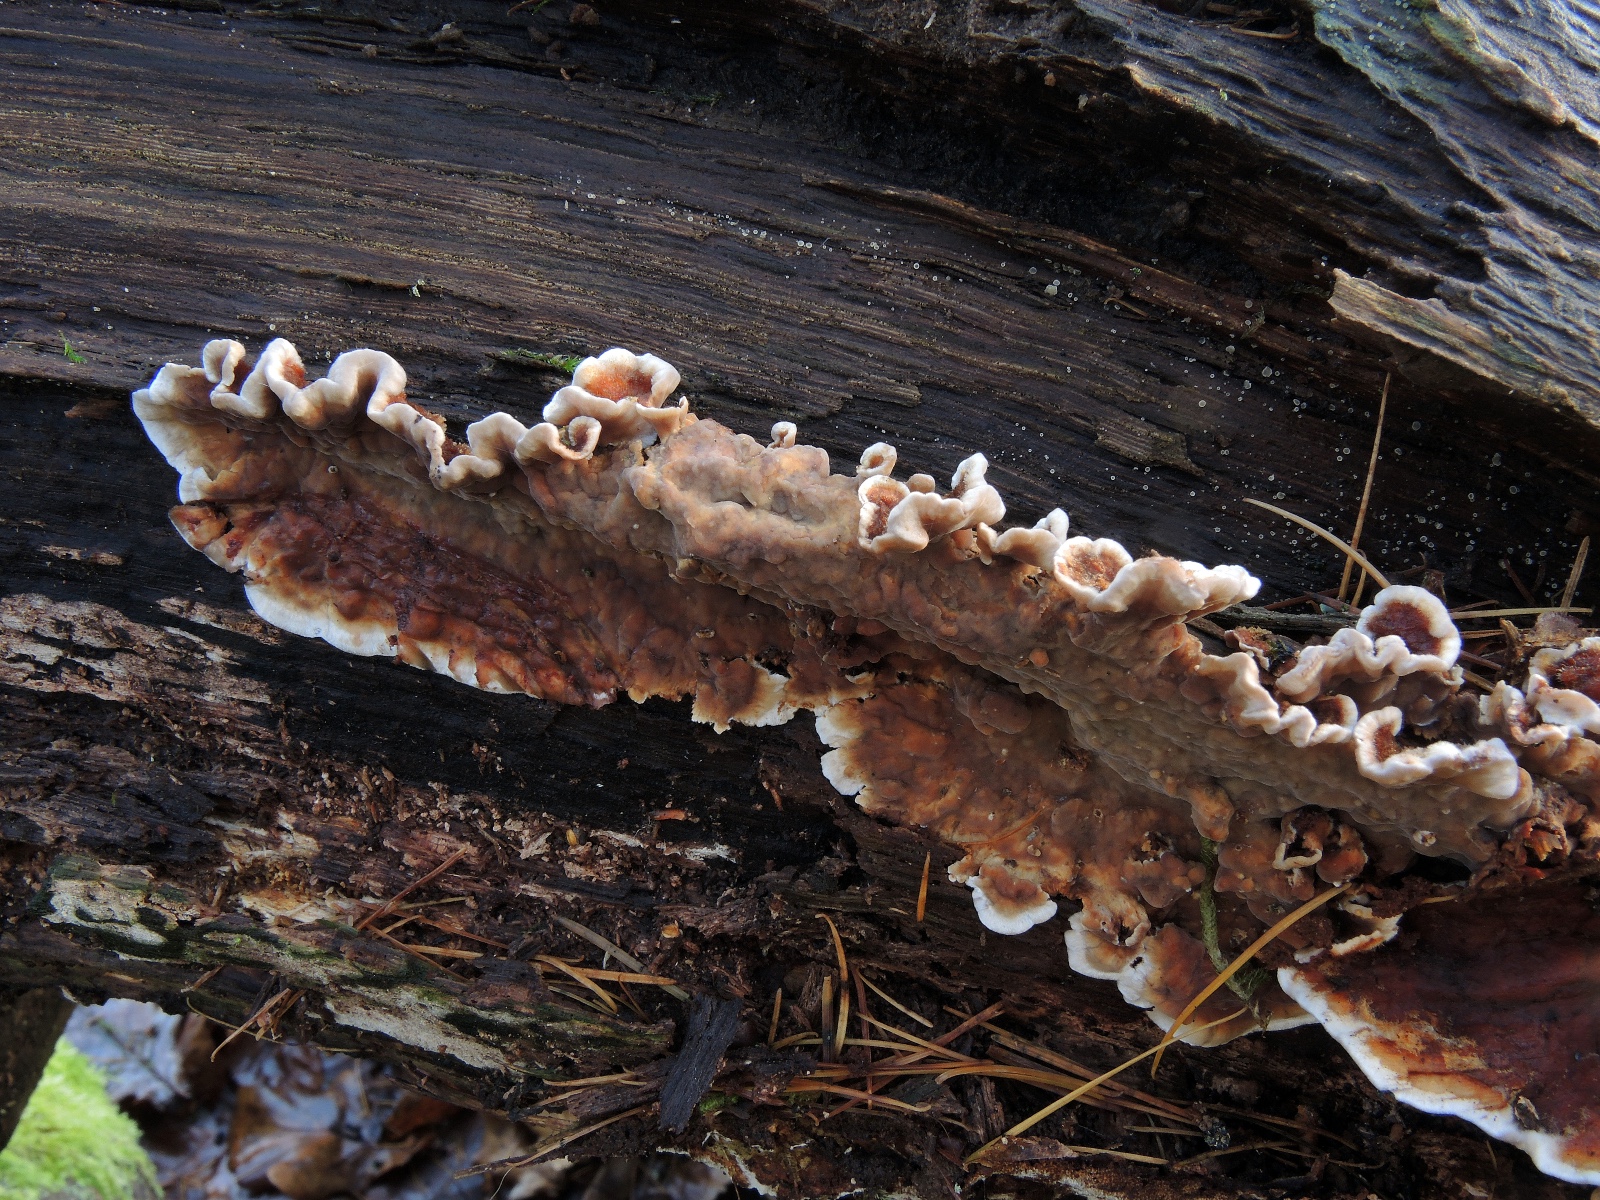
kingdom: Fungi
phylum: Basidiomycota
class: Agaricomycetes
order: Russulales
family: Stereaceae
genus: Stereum
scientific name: Stereum gausapatum
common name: tynd lædersvamp
